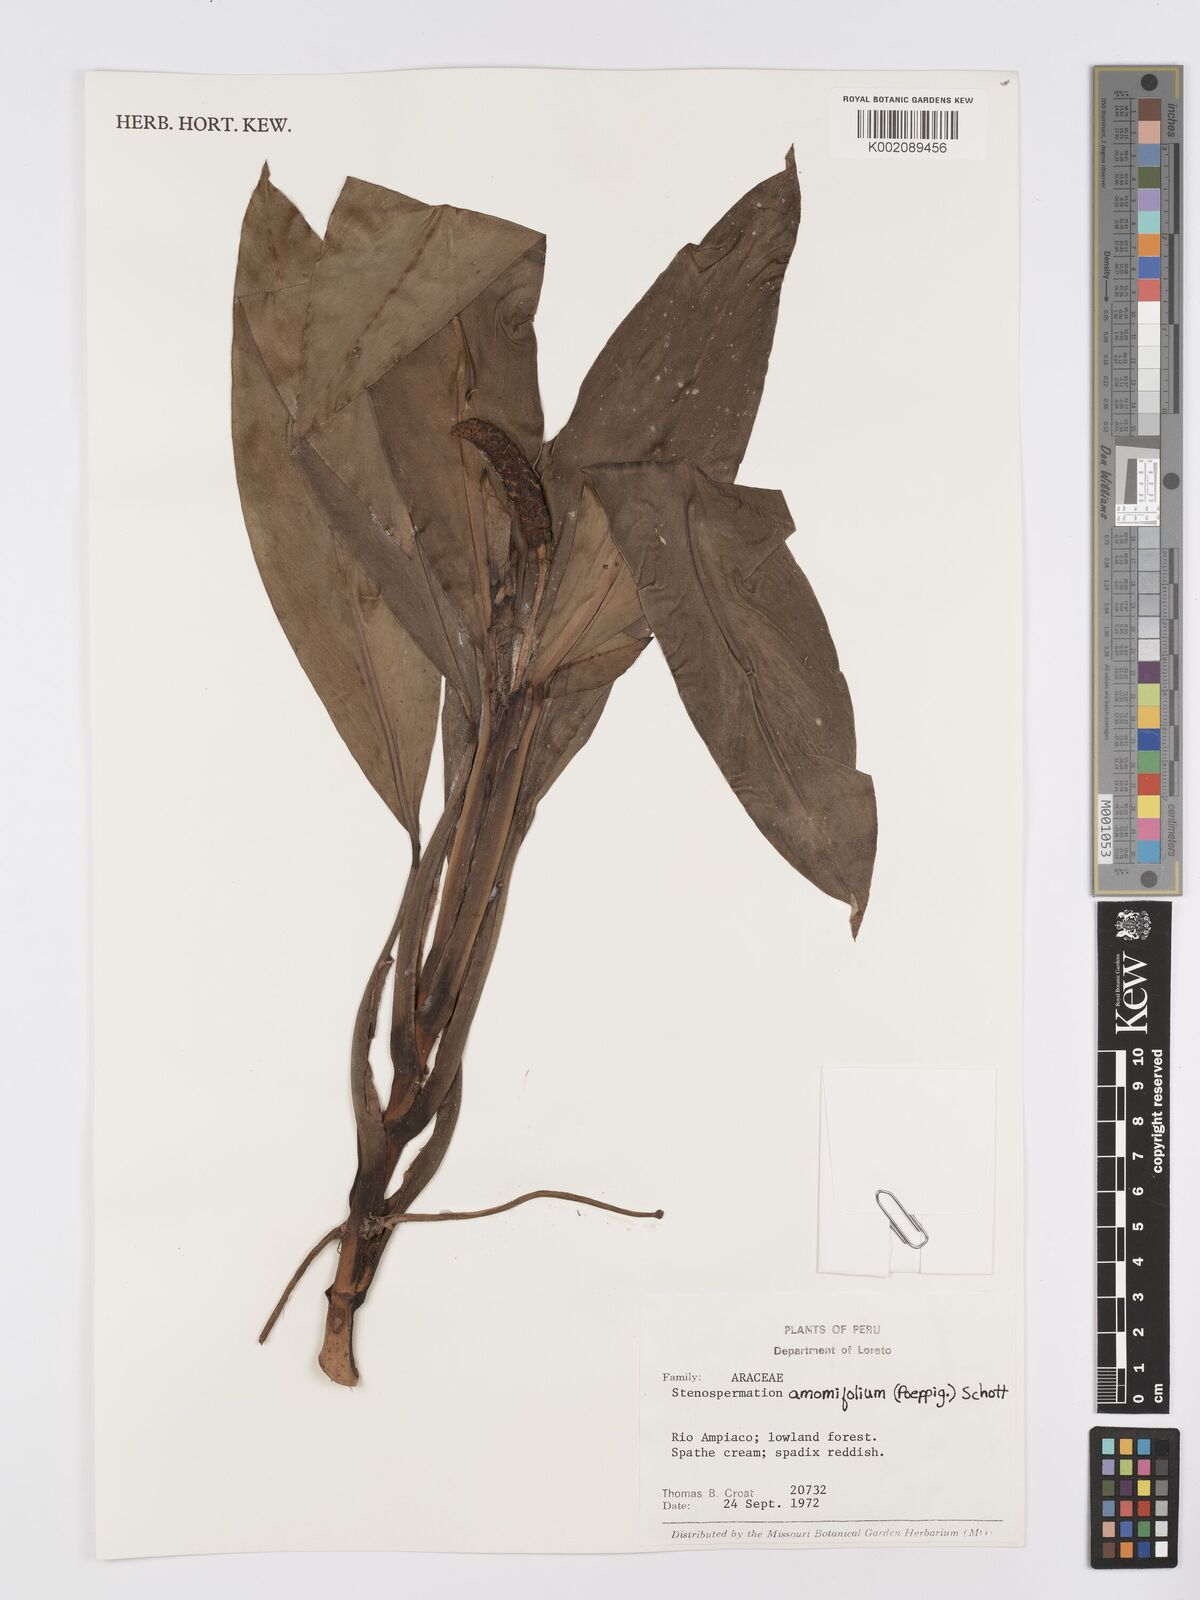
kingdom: Plantae
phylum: Tracheophyta
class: Liliopsida
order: Alismatales
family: Araceae
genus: Stenospermation
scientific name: Stenospermation amomifolium
